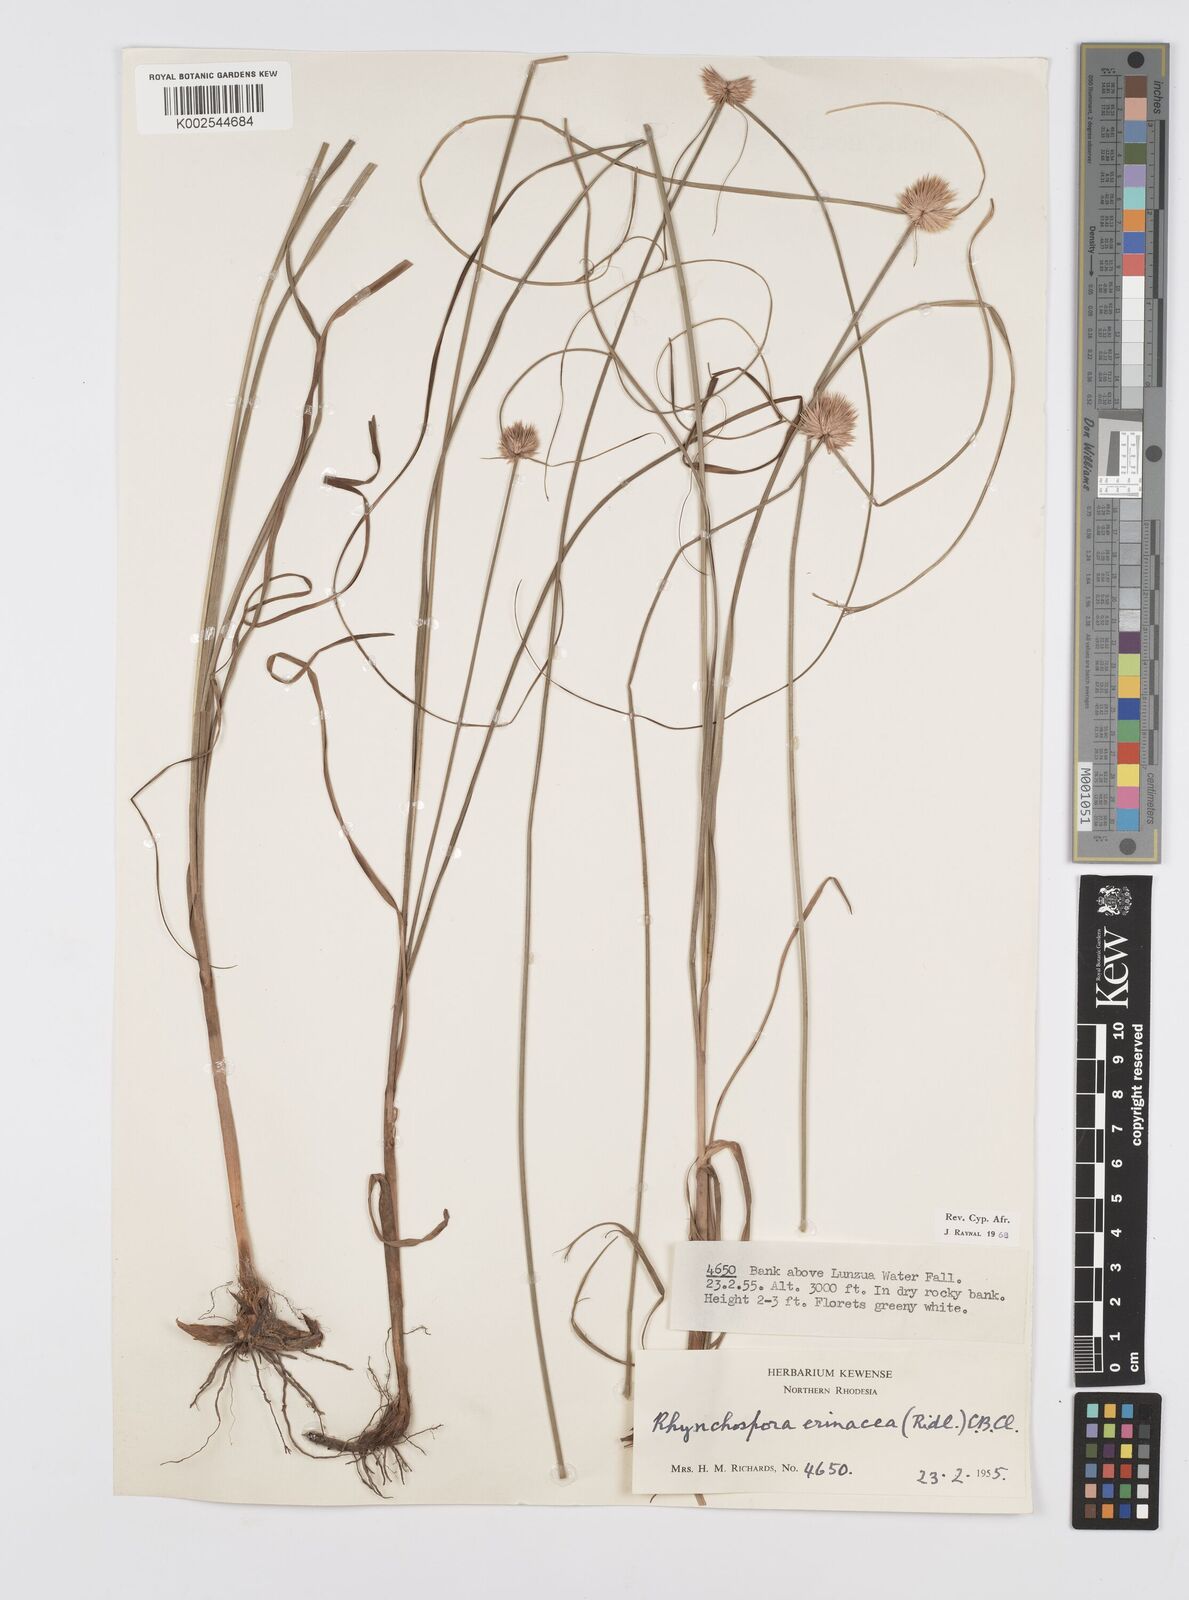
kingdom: Plantae
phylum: Tracheophyta
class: Liliopsida
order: Poales
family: Cyperaceae
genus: Cyperus
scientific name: Cyperus erinaceus
